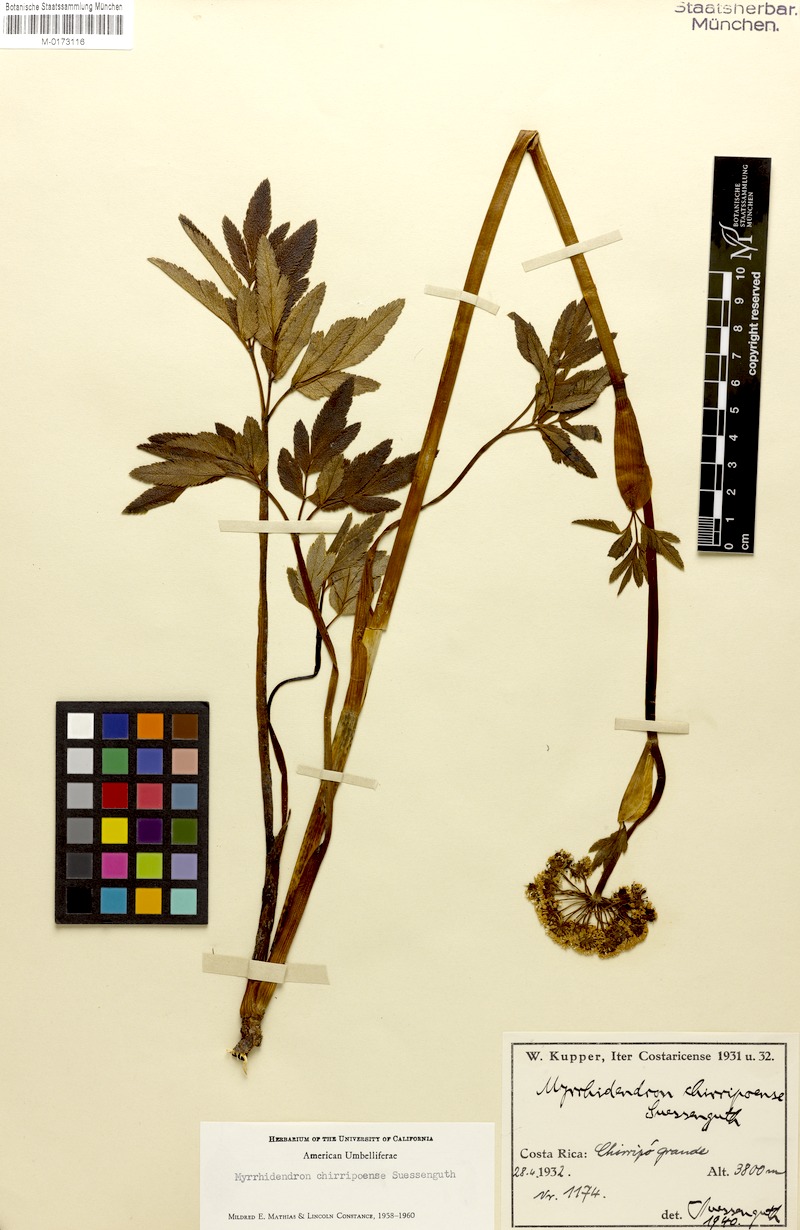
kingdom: Plantae
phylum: Tracheophyta
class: Magnoliopsida
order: Apiales
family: Apiaceae
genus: Myrrhidendron
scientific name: Myrrhidendron chirripoense
